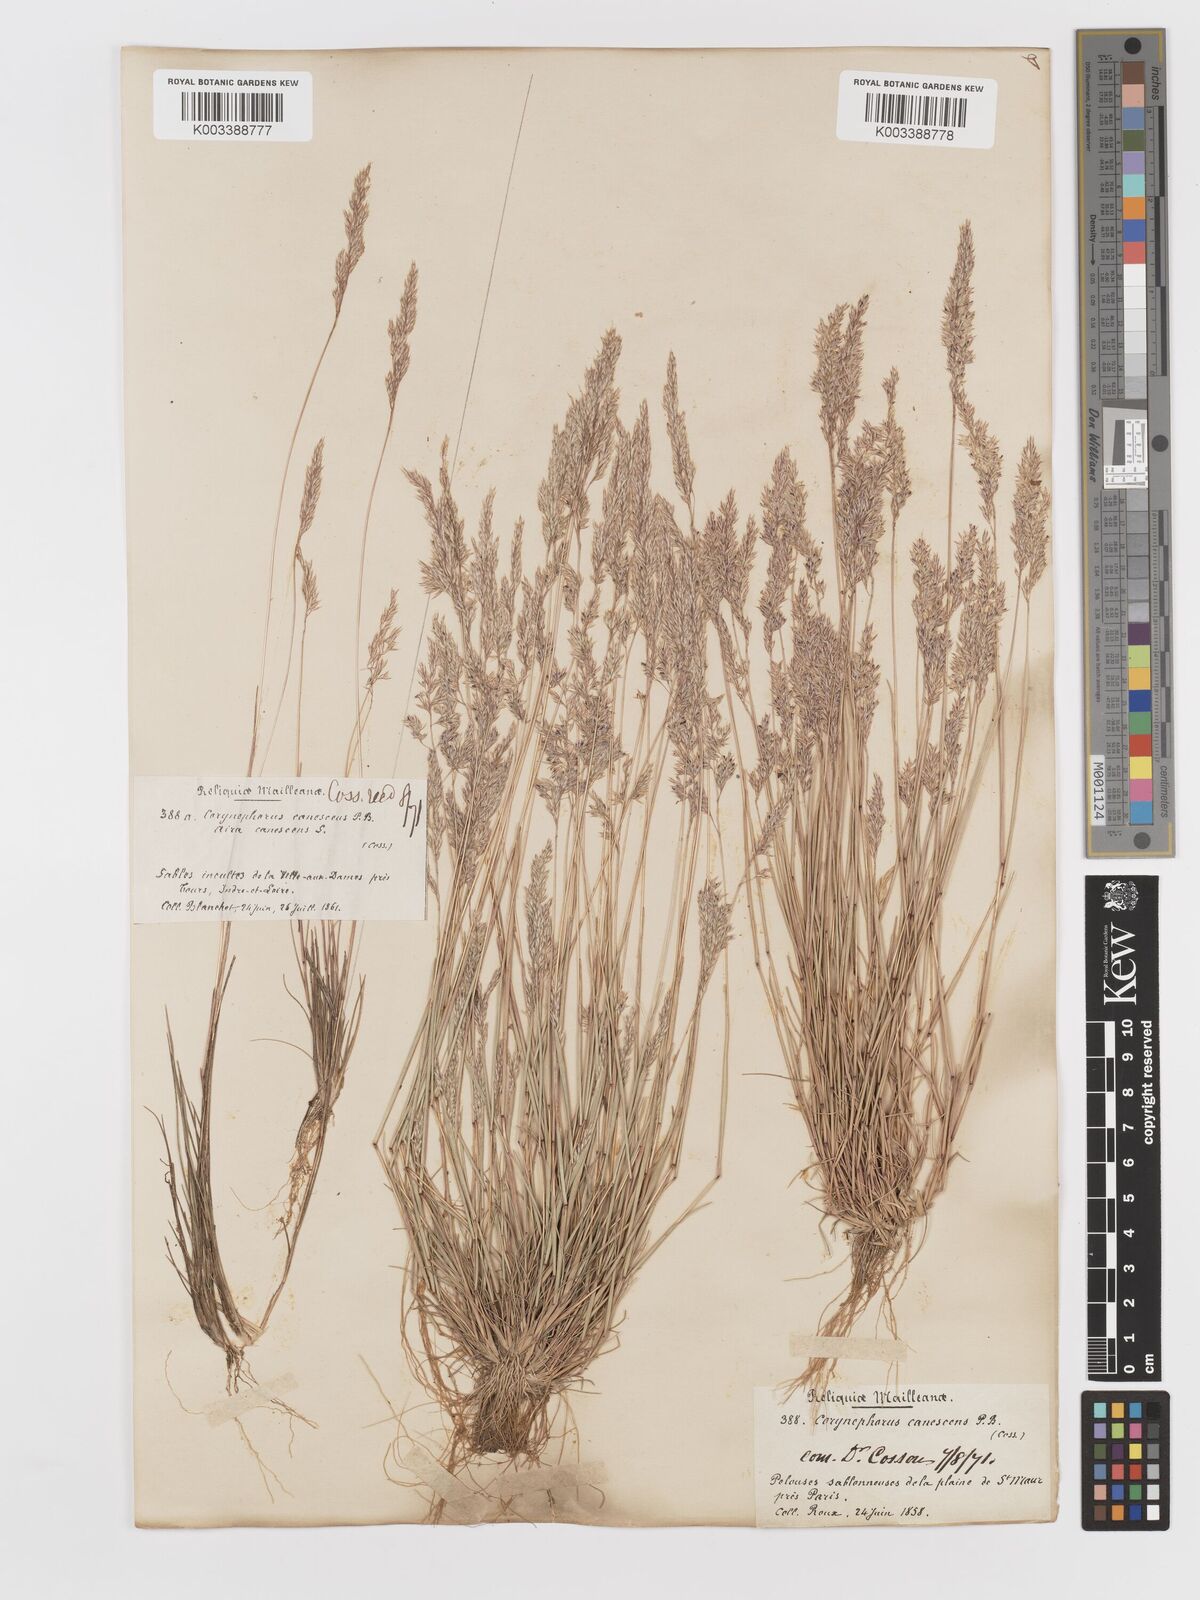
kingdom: Plantae
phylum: Tracheophyta
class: Liliopsida
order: Poales
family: Poaceae
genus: Corynephorus
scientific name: Corynephorus canescens
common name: Grey hair-grass
